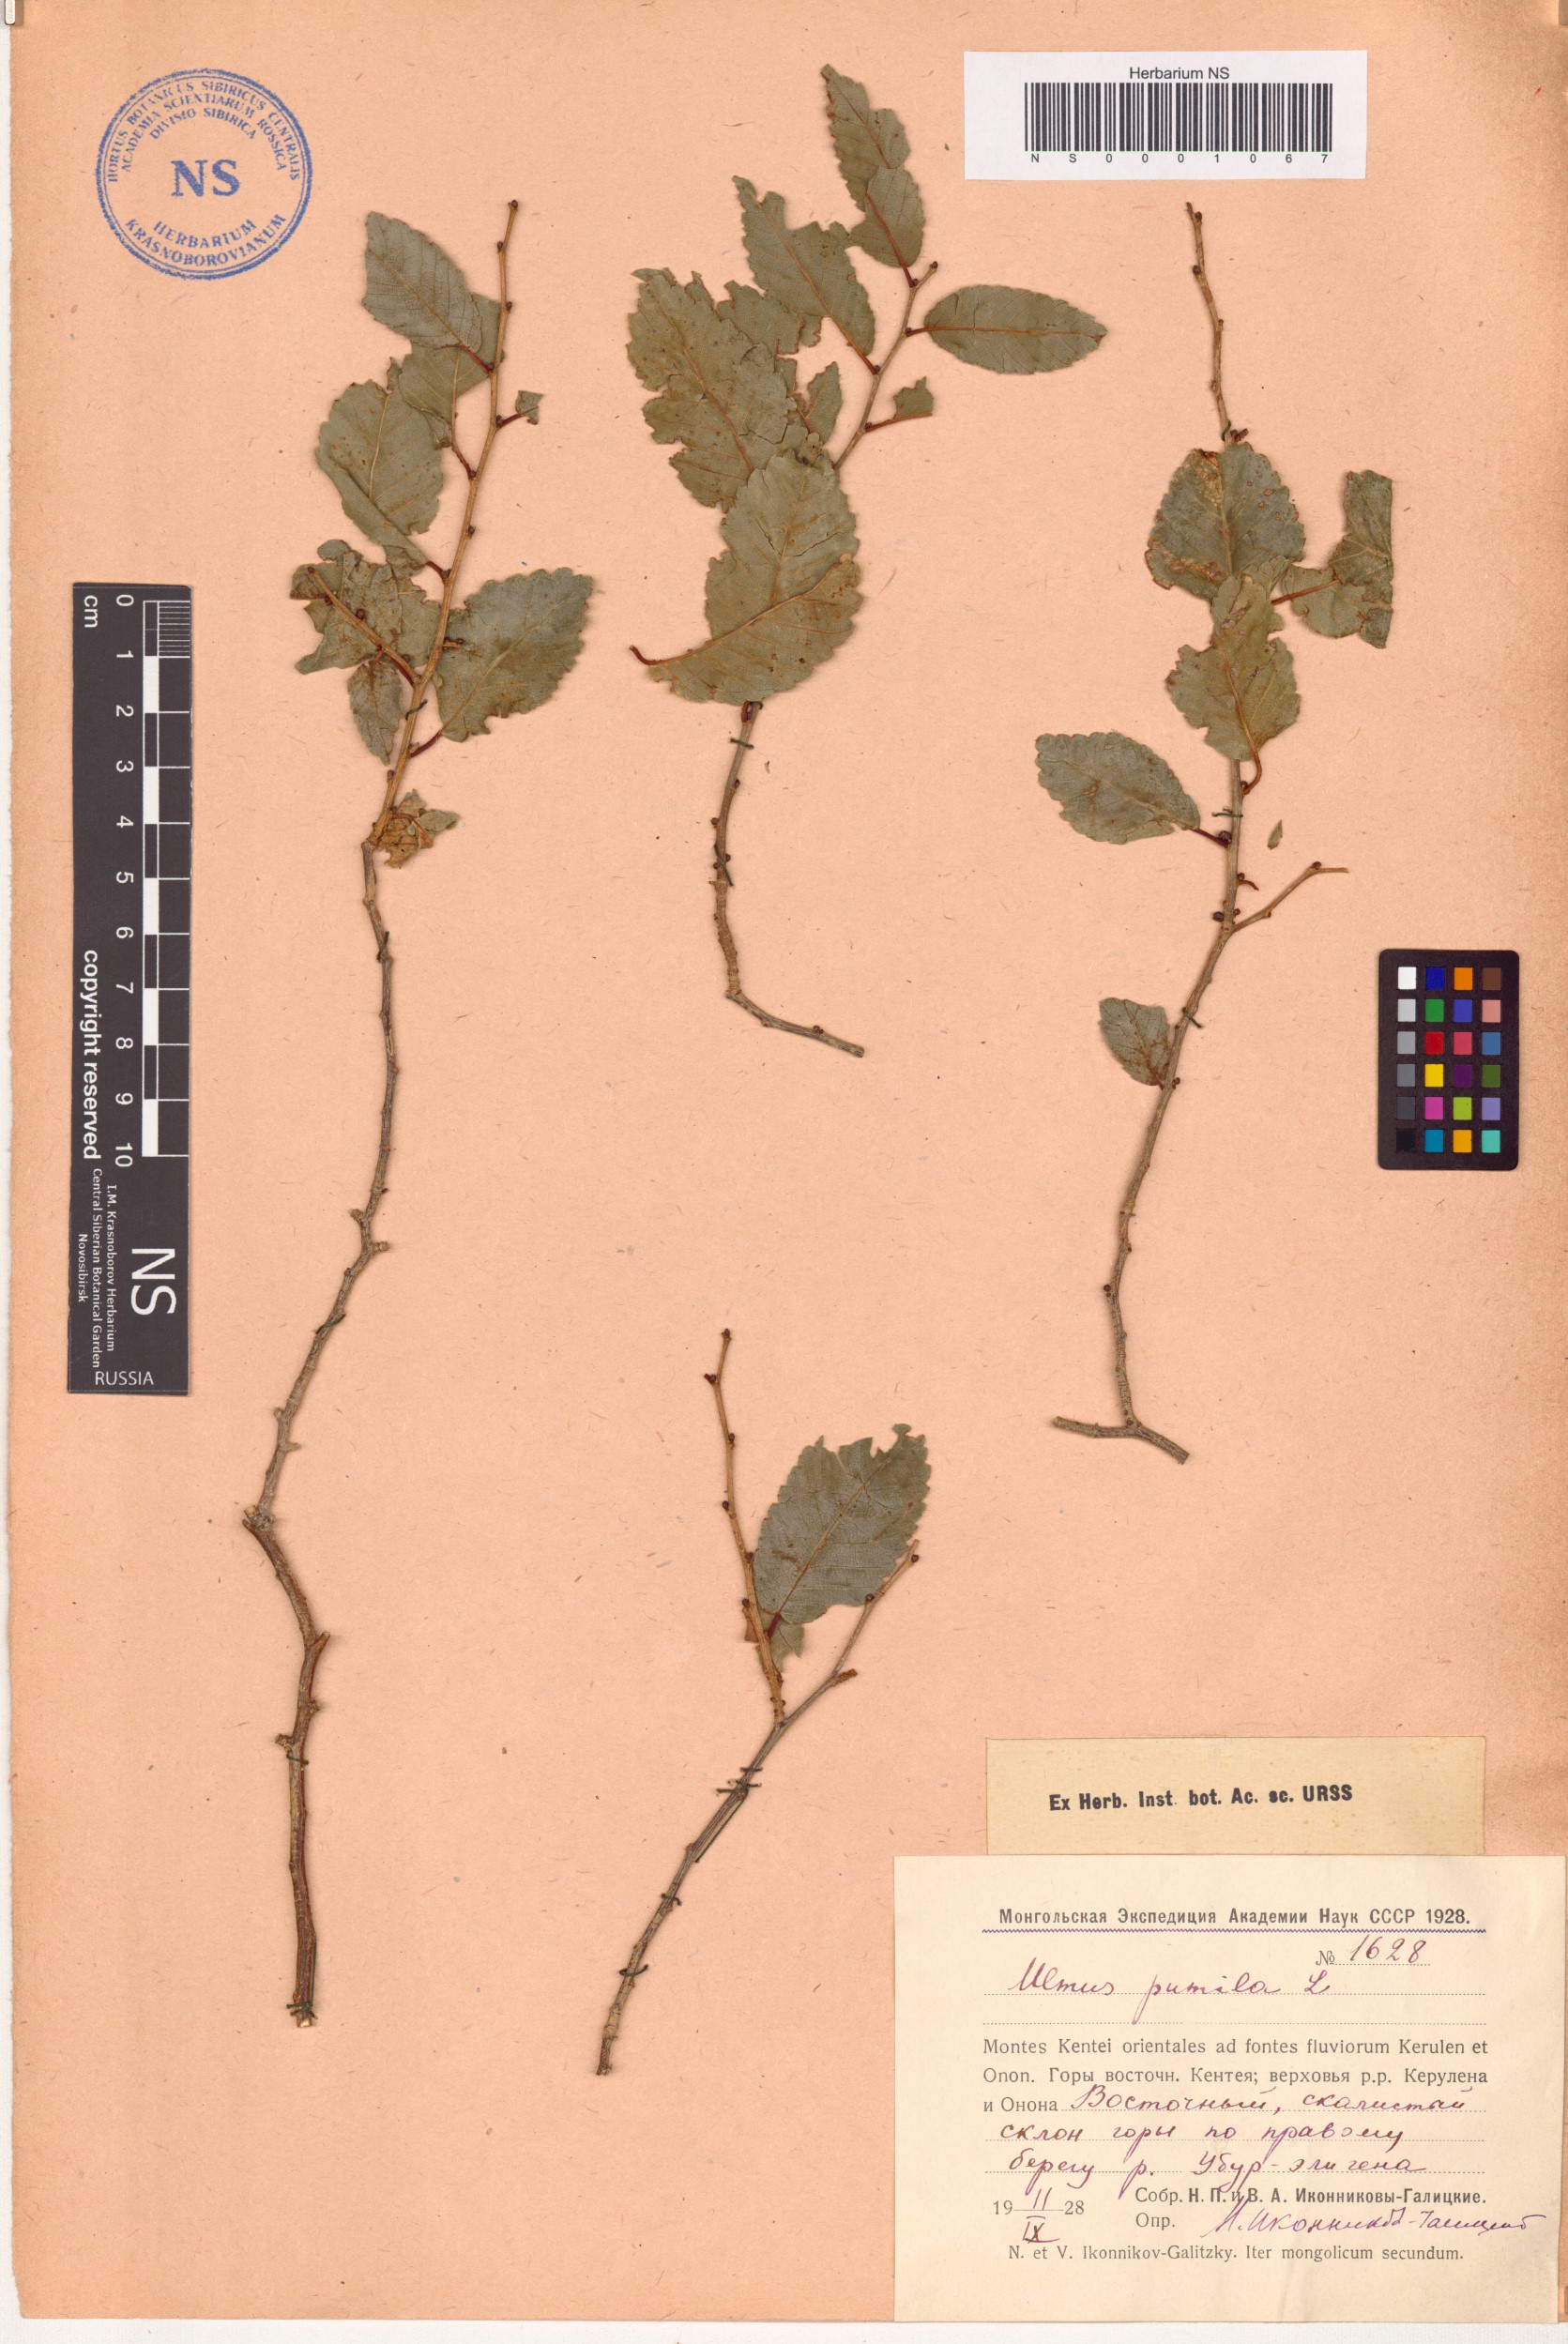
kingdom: Plantae
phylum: Tracheophyta
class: Magnoliopsida
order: Rosales
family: Ulmaceae
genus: Ulmus
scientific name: Ulmus pumila
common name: Siberian elm
